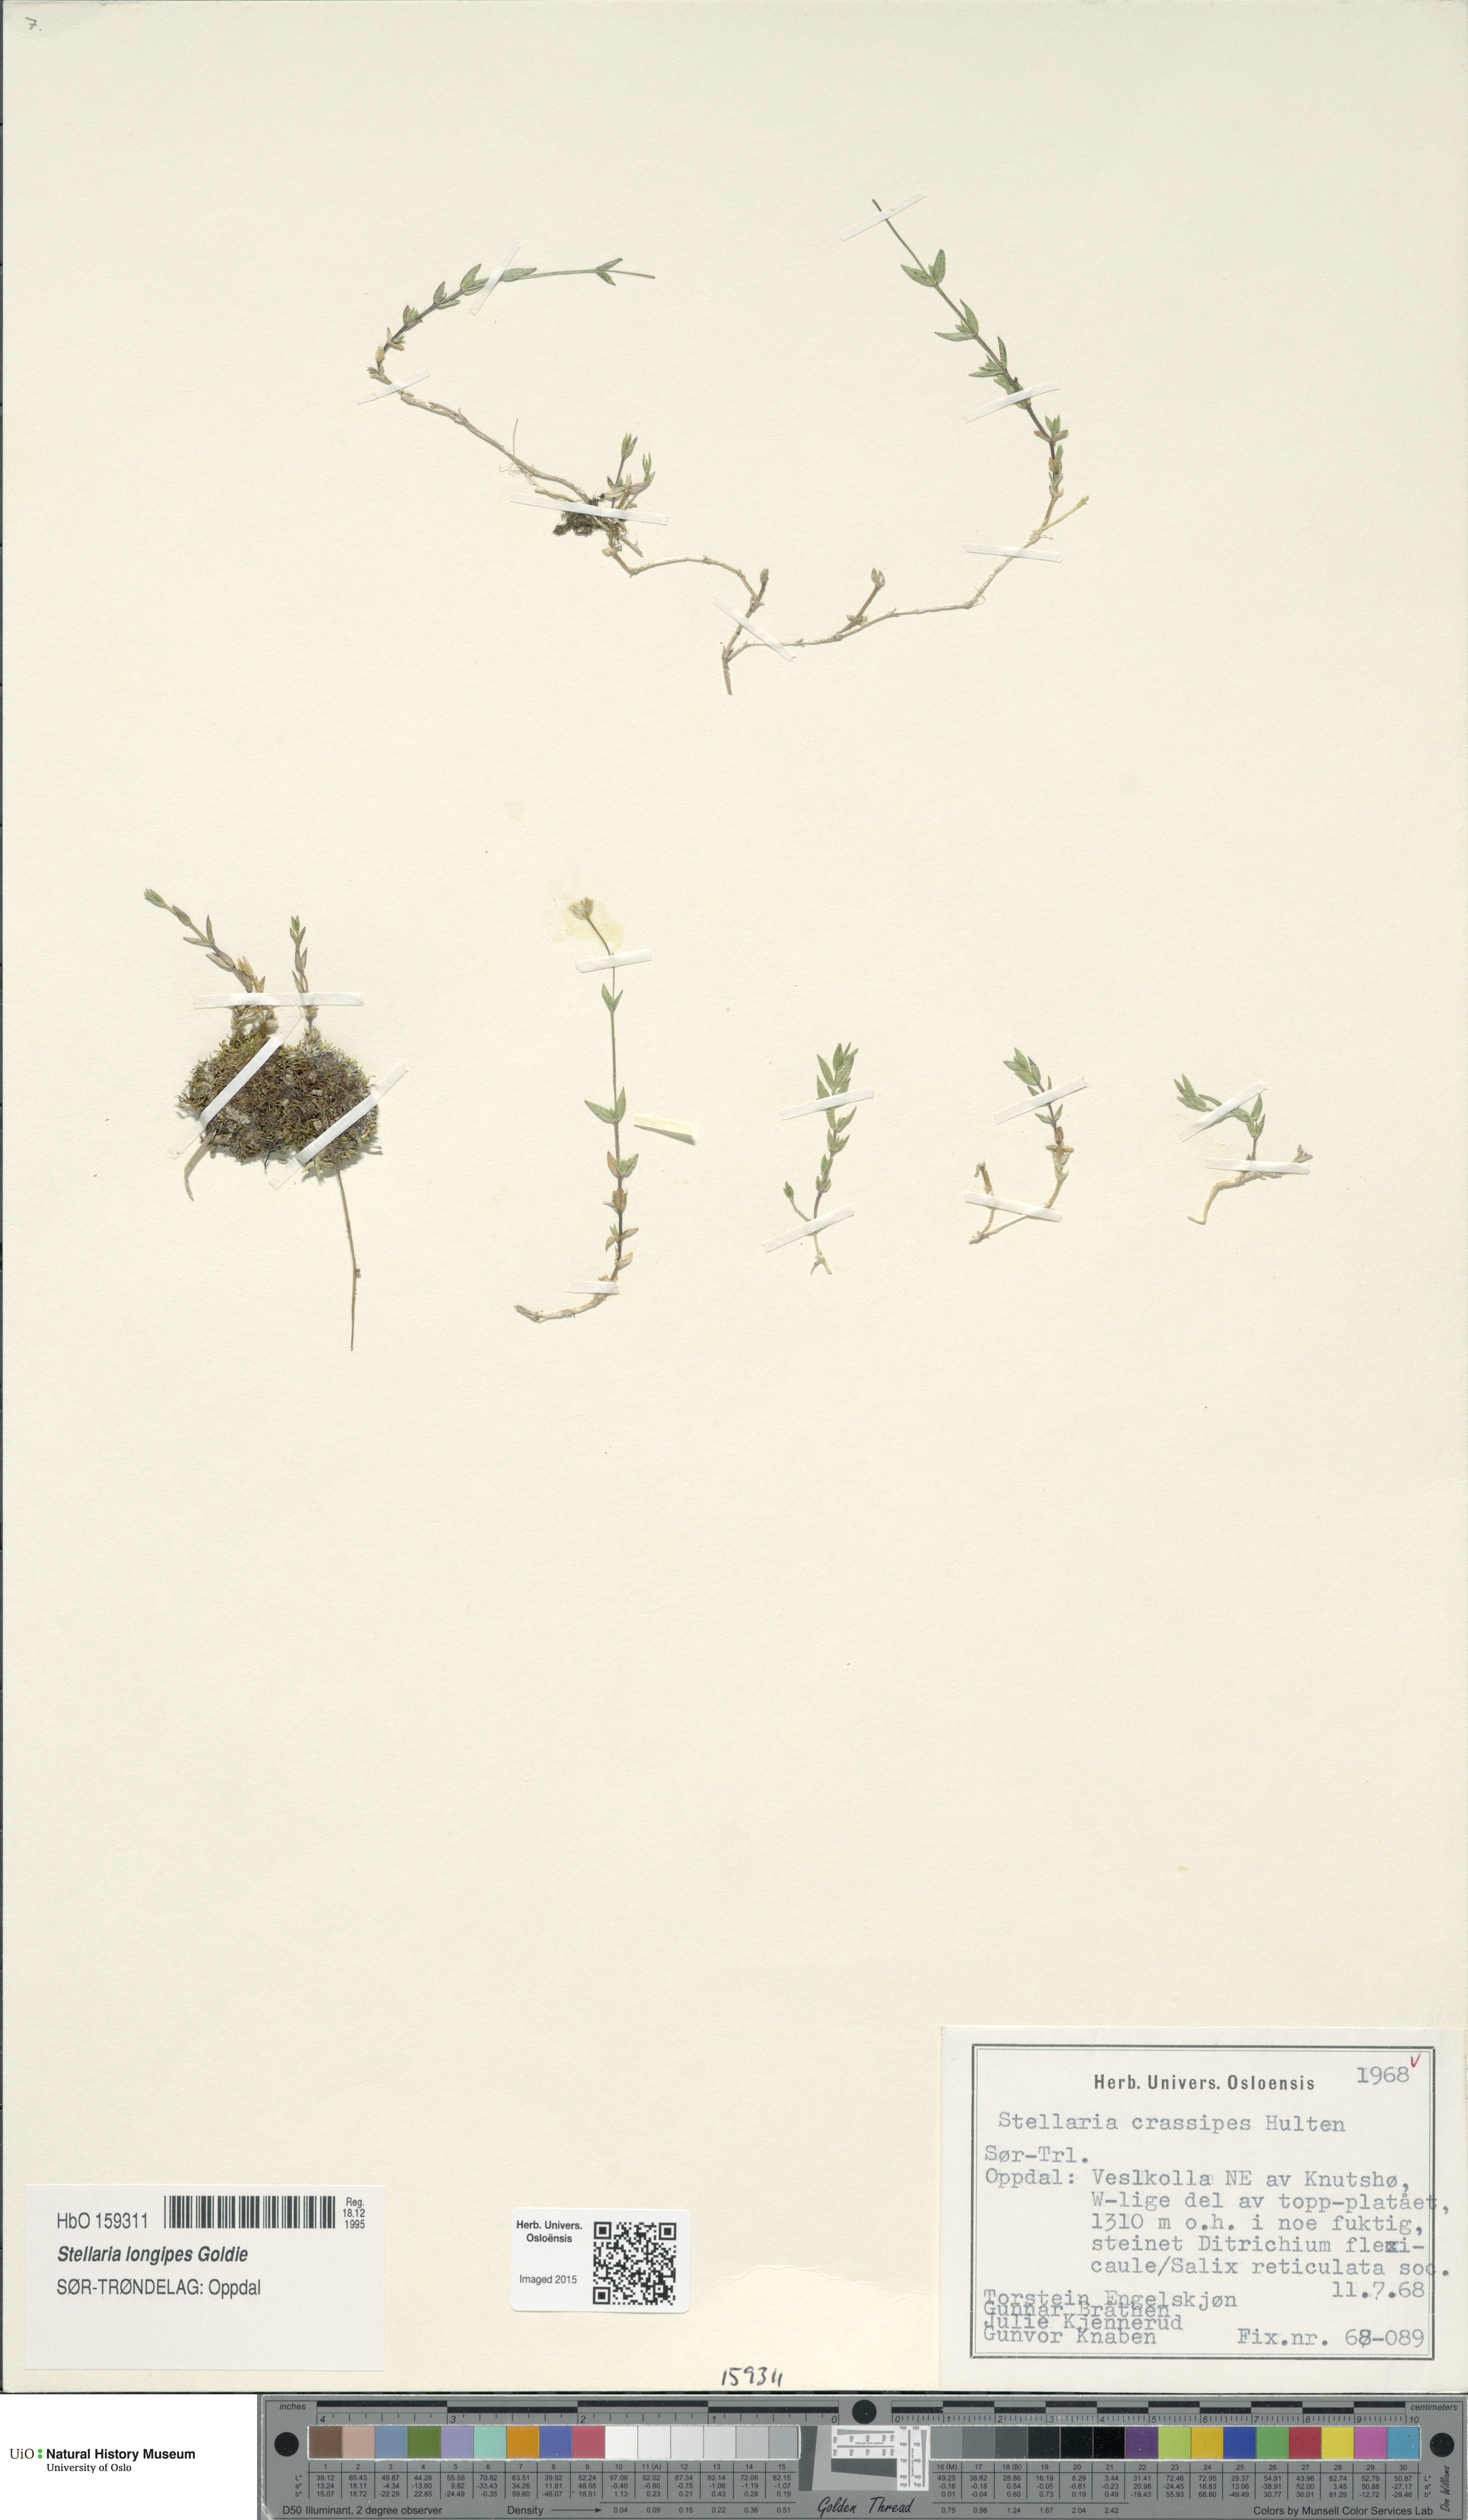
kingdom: Plantae
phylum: Tracheophyta
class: Magnoliopsida
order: Caryophyllales
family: Caryophyllaceae
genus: Stellaria
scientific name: Stellaria longipes
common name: Goldie's starwort
